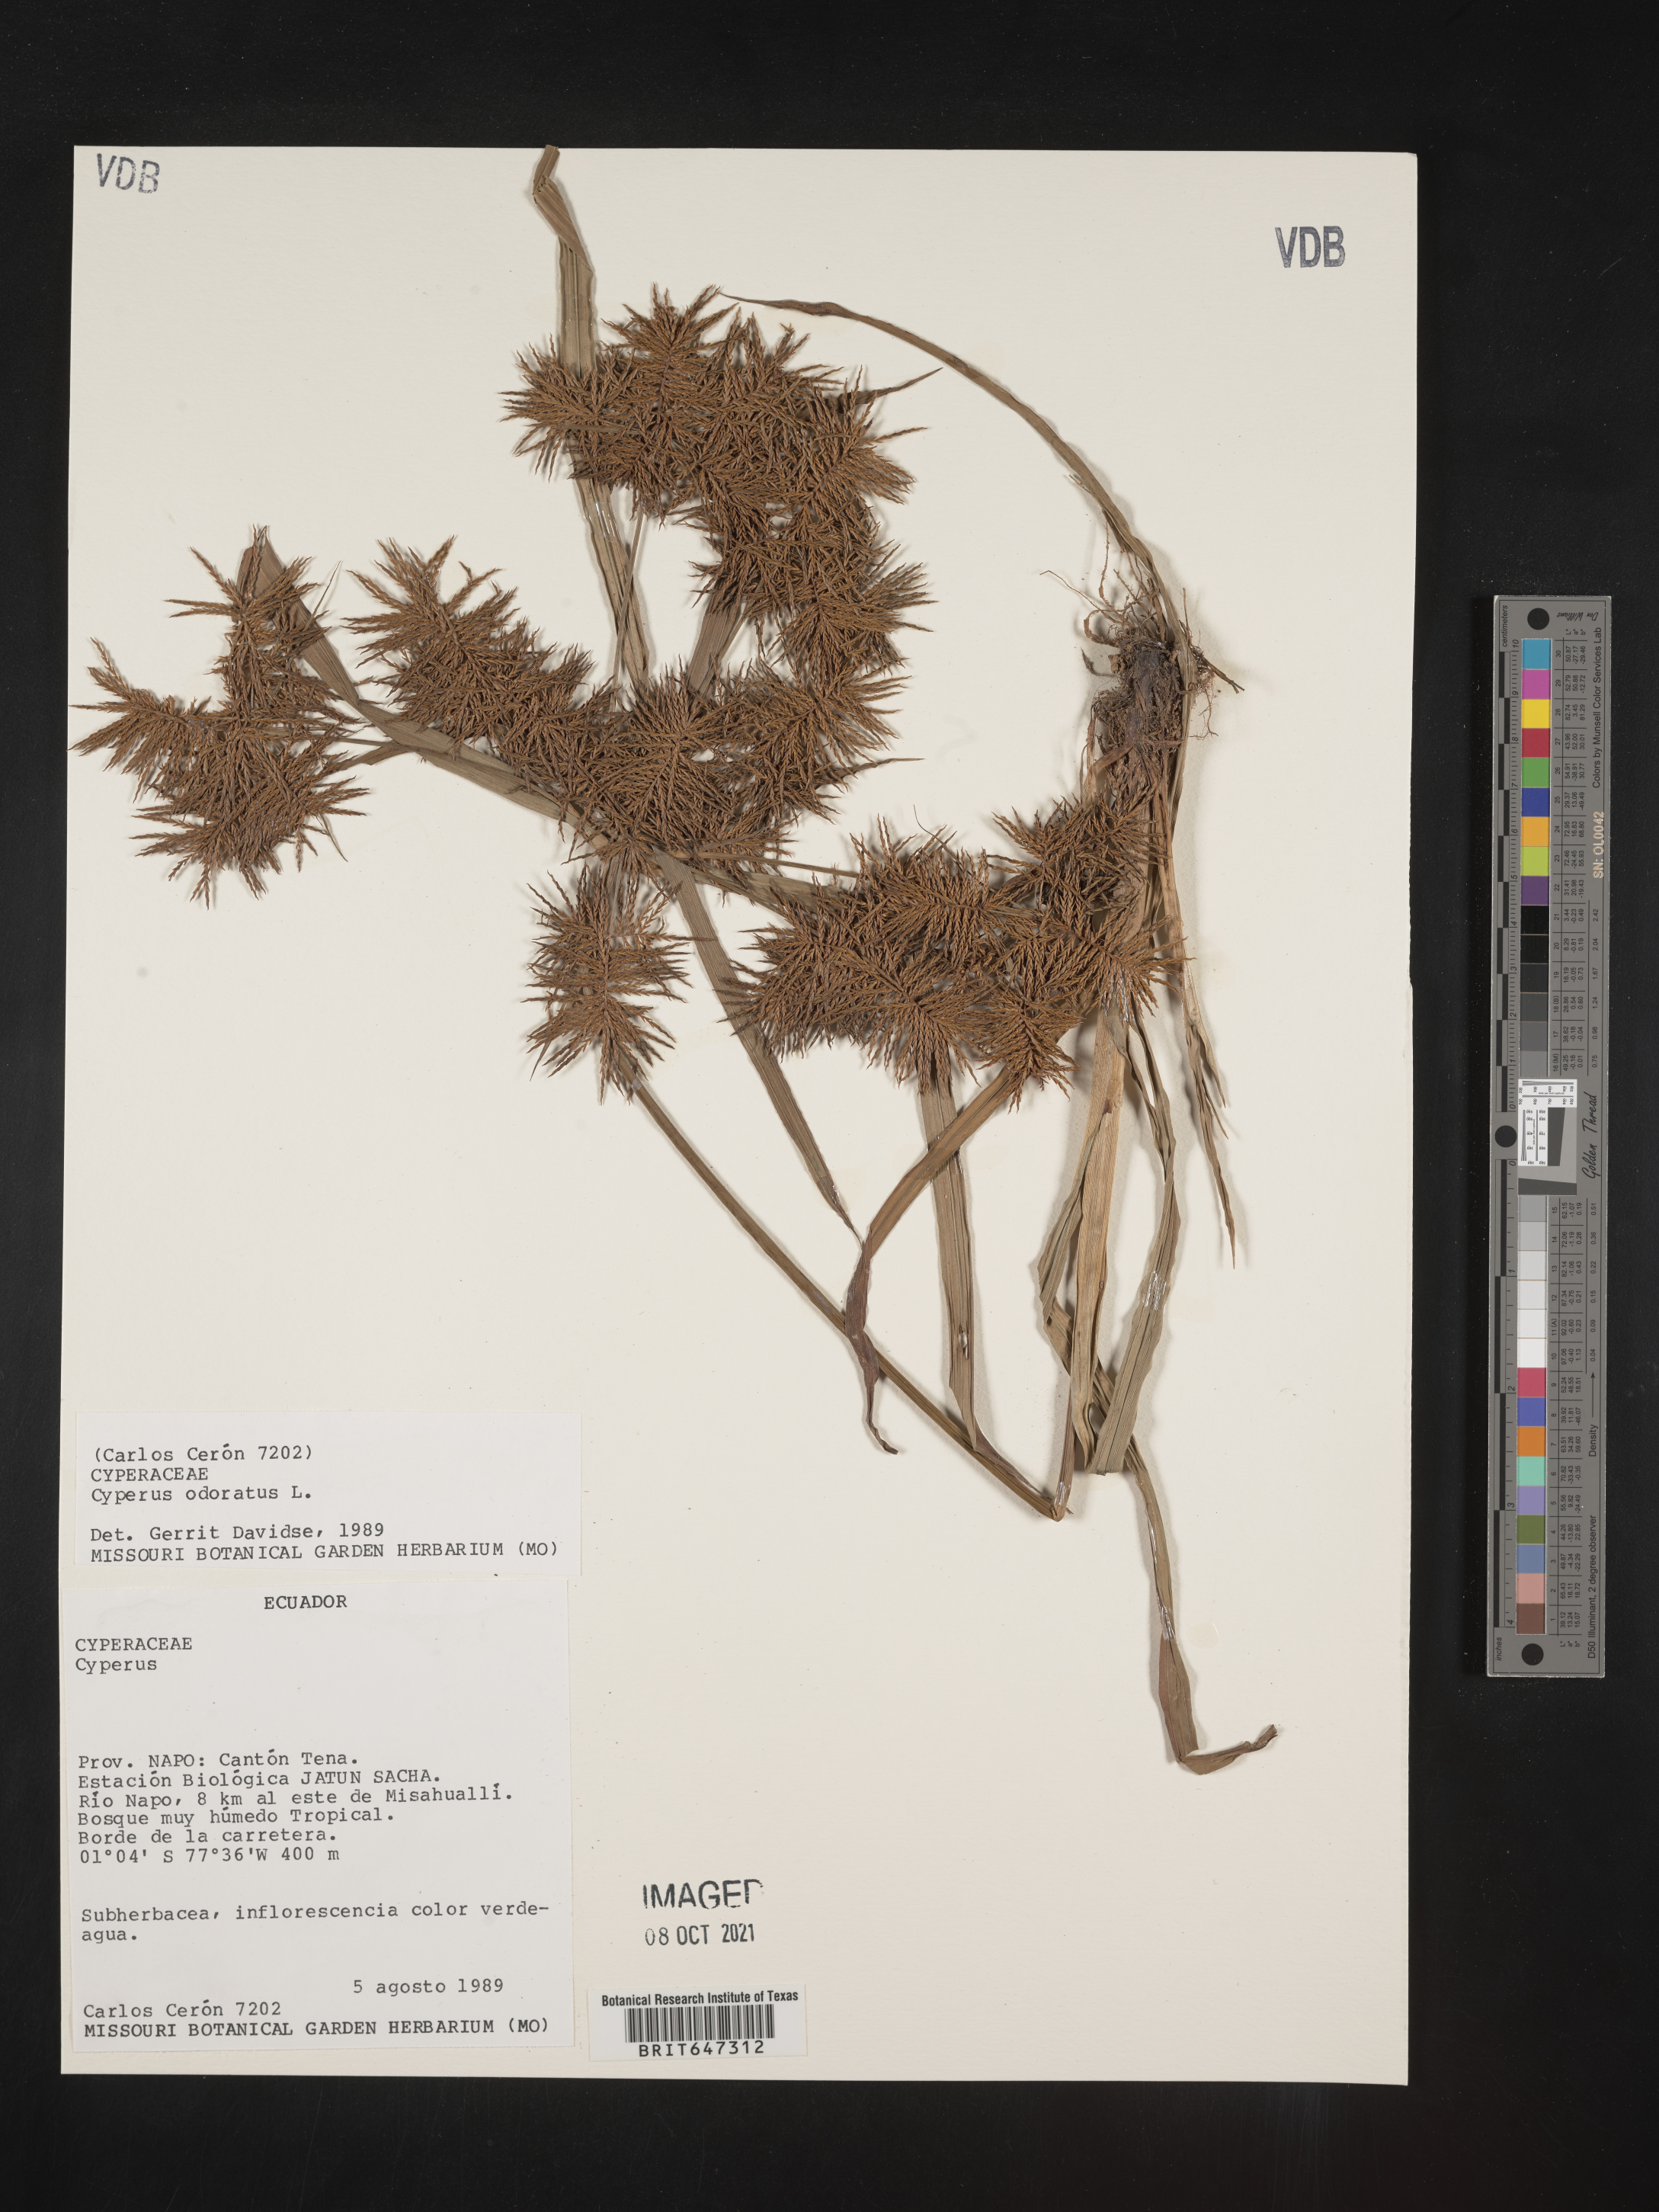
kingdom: Plantae
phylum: Tracheophyta
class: Liliopsida
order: Poales
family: Cyperaceae
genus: Cyperus
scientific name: Cyperus odoratus
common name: Fragrant flatsedge
